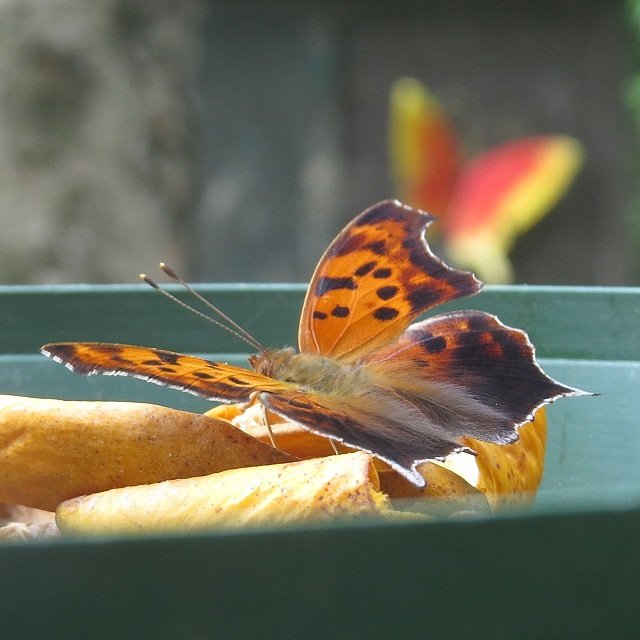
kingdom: Animalia
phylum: Arthropoda
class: Insecta
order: Lepidoptera
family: Nymphalidae
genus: Polygonia
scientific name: Polygonia interrogationis
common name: Question Mark
